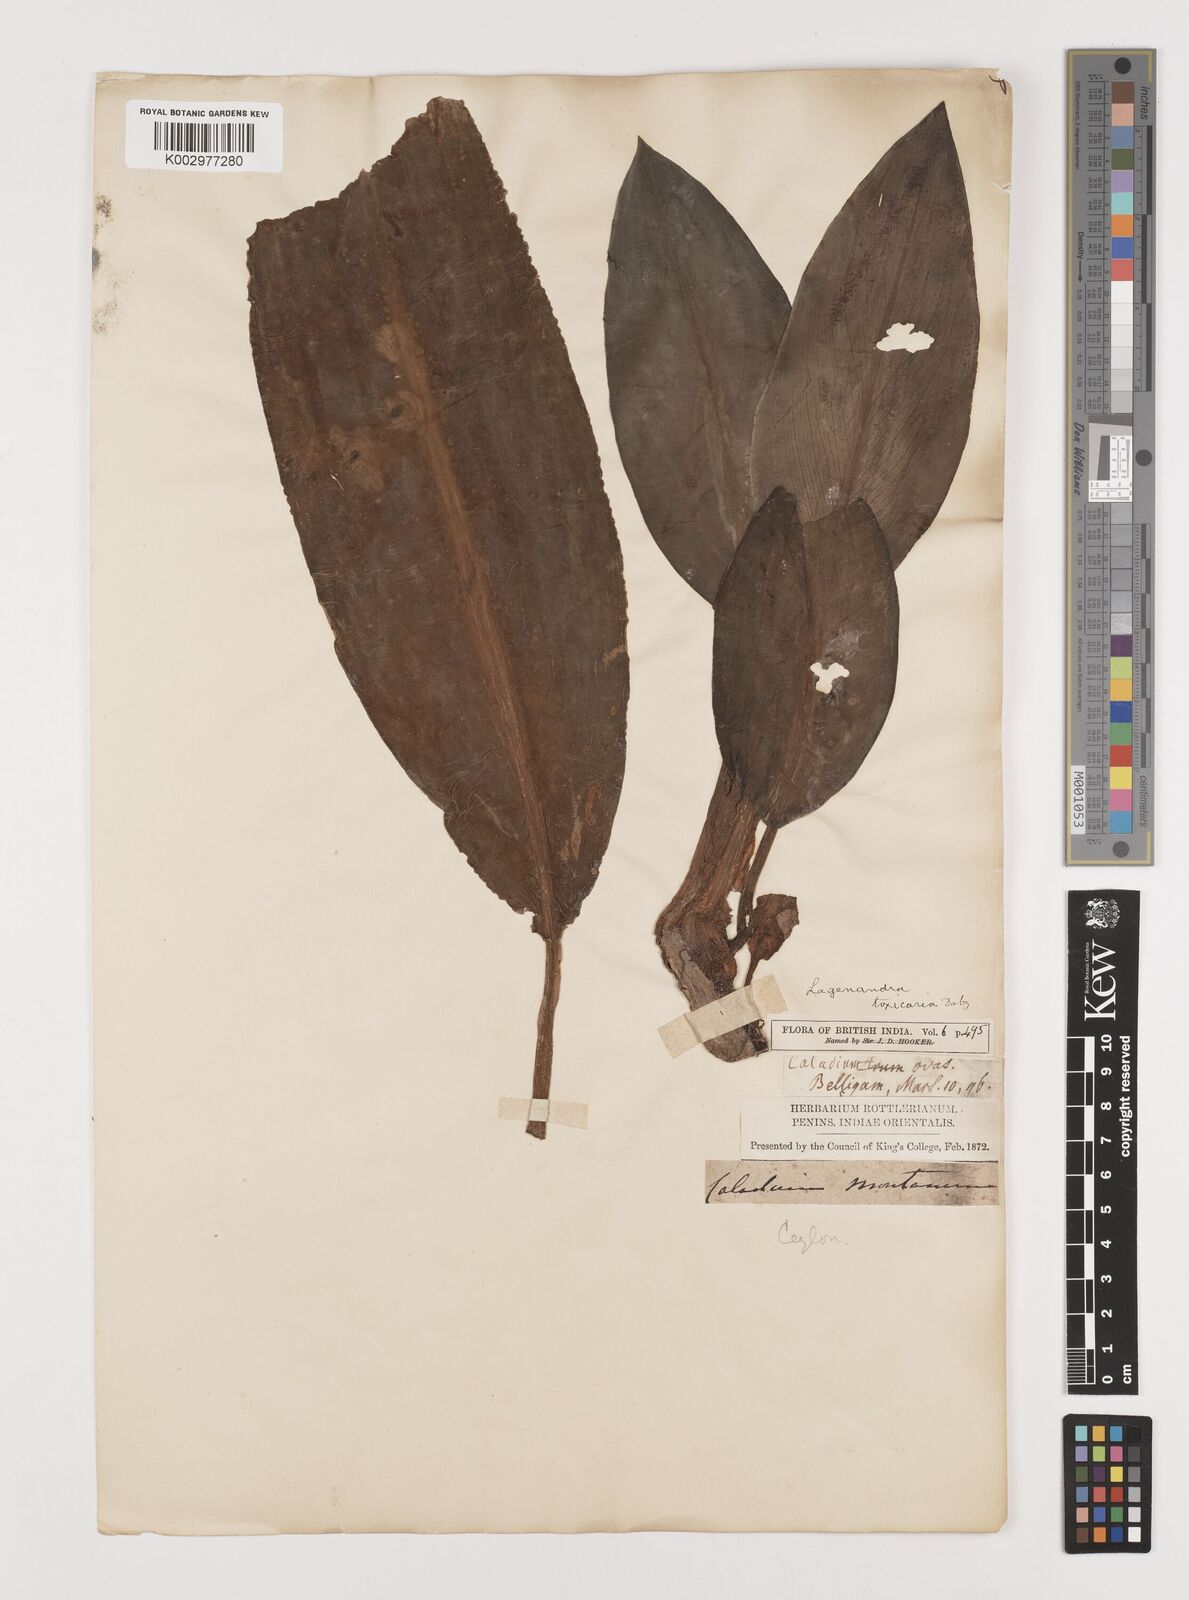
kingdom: Plantae
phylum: Tracheophyta
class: Liliopsida
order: Alismatales
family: Araceae
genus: Lagenandra
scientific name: Lagenandra ovata
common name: Malayan sword
